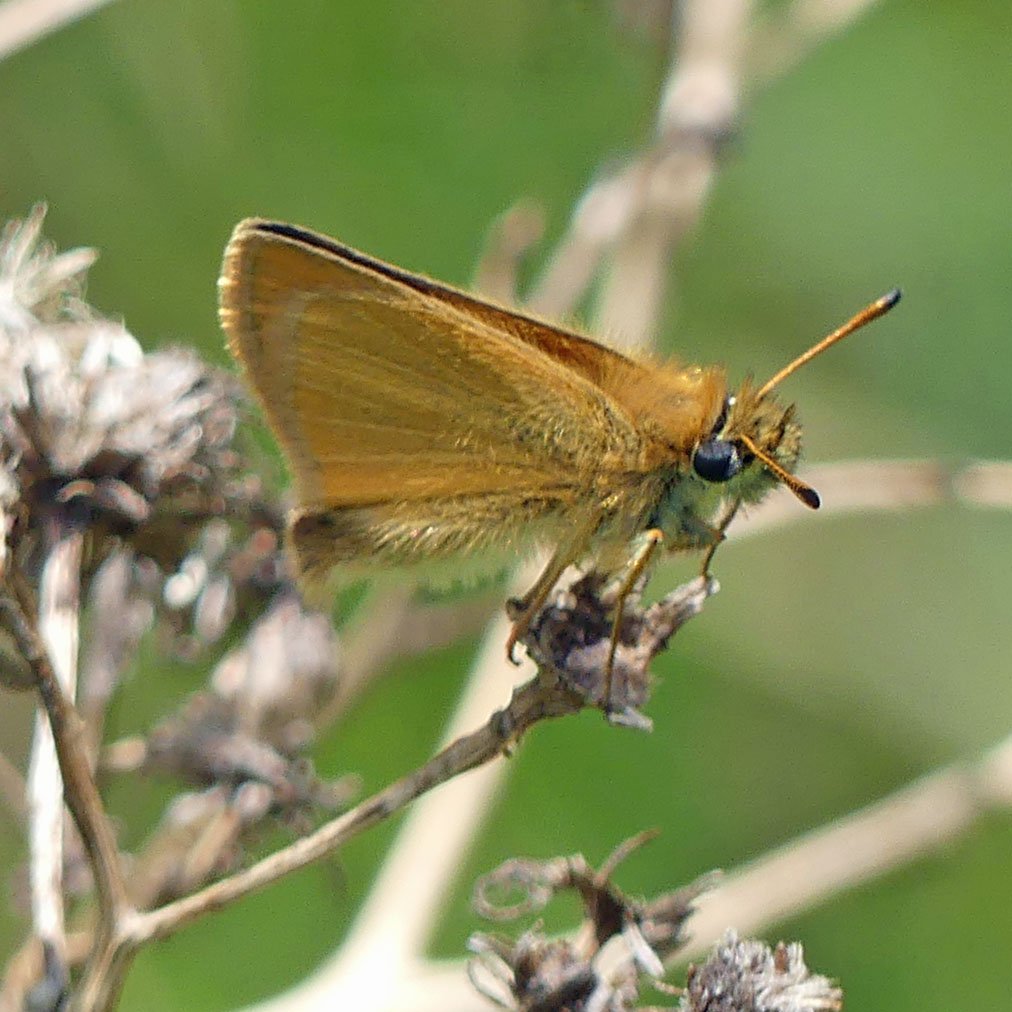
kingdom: Animalia
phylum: Arthropoda
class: Insecta
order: Lepidoptera
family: Hesperiidae
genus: Thymelicus
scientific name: Thymelicus lineola
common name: European Skipper
